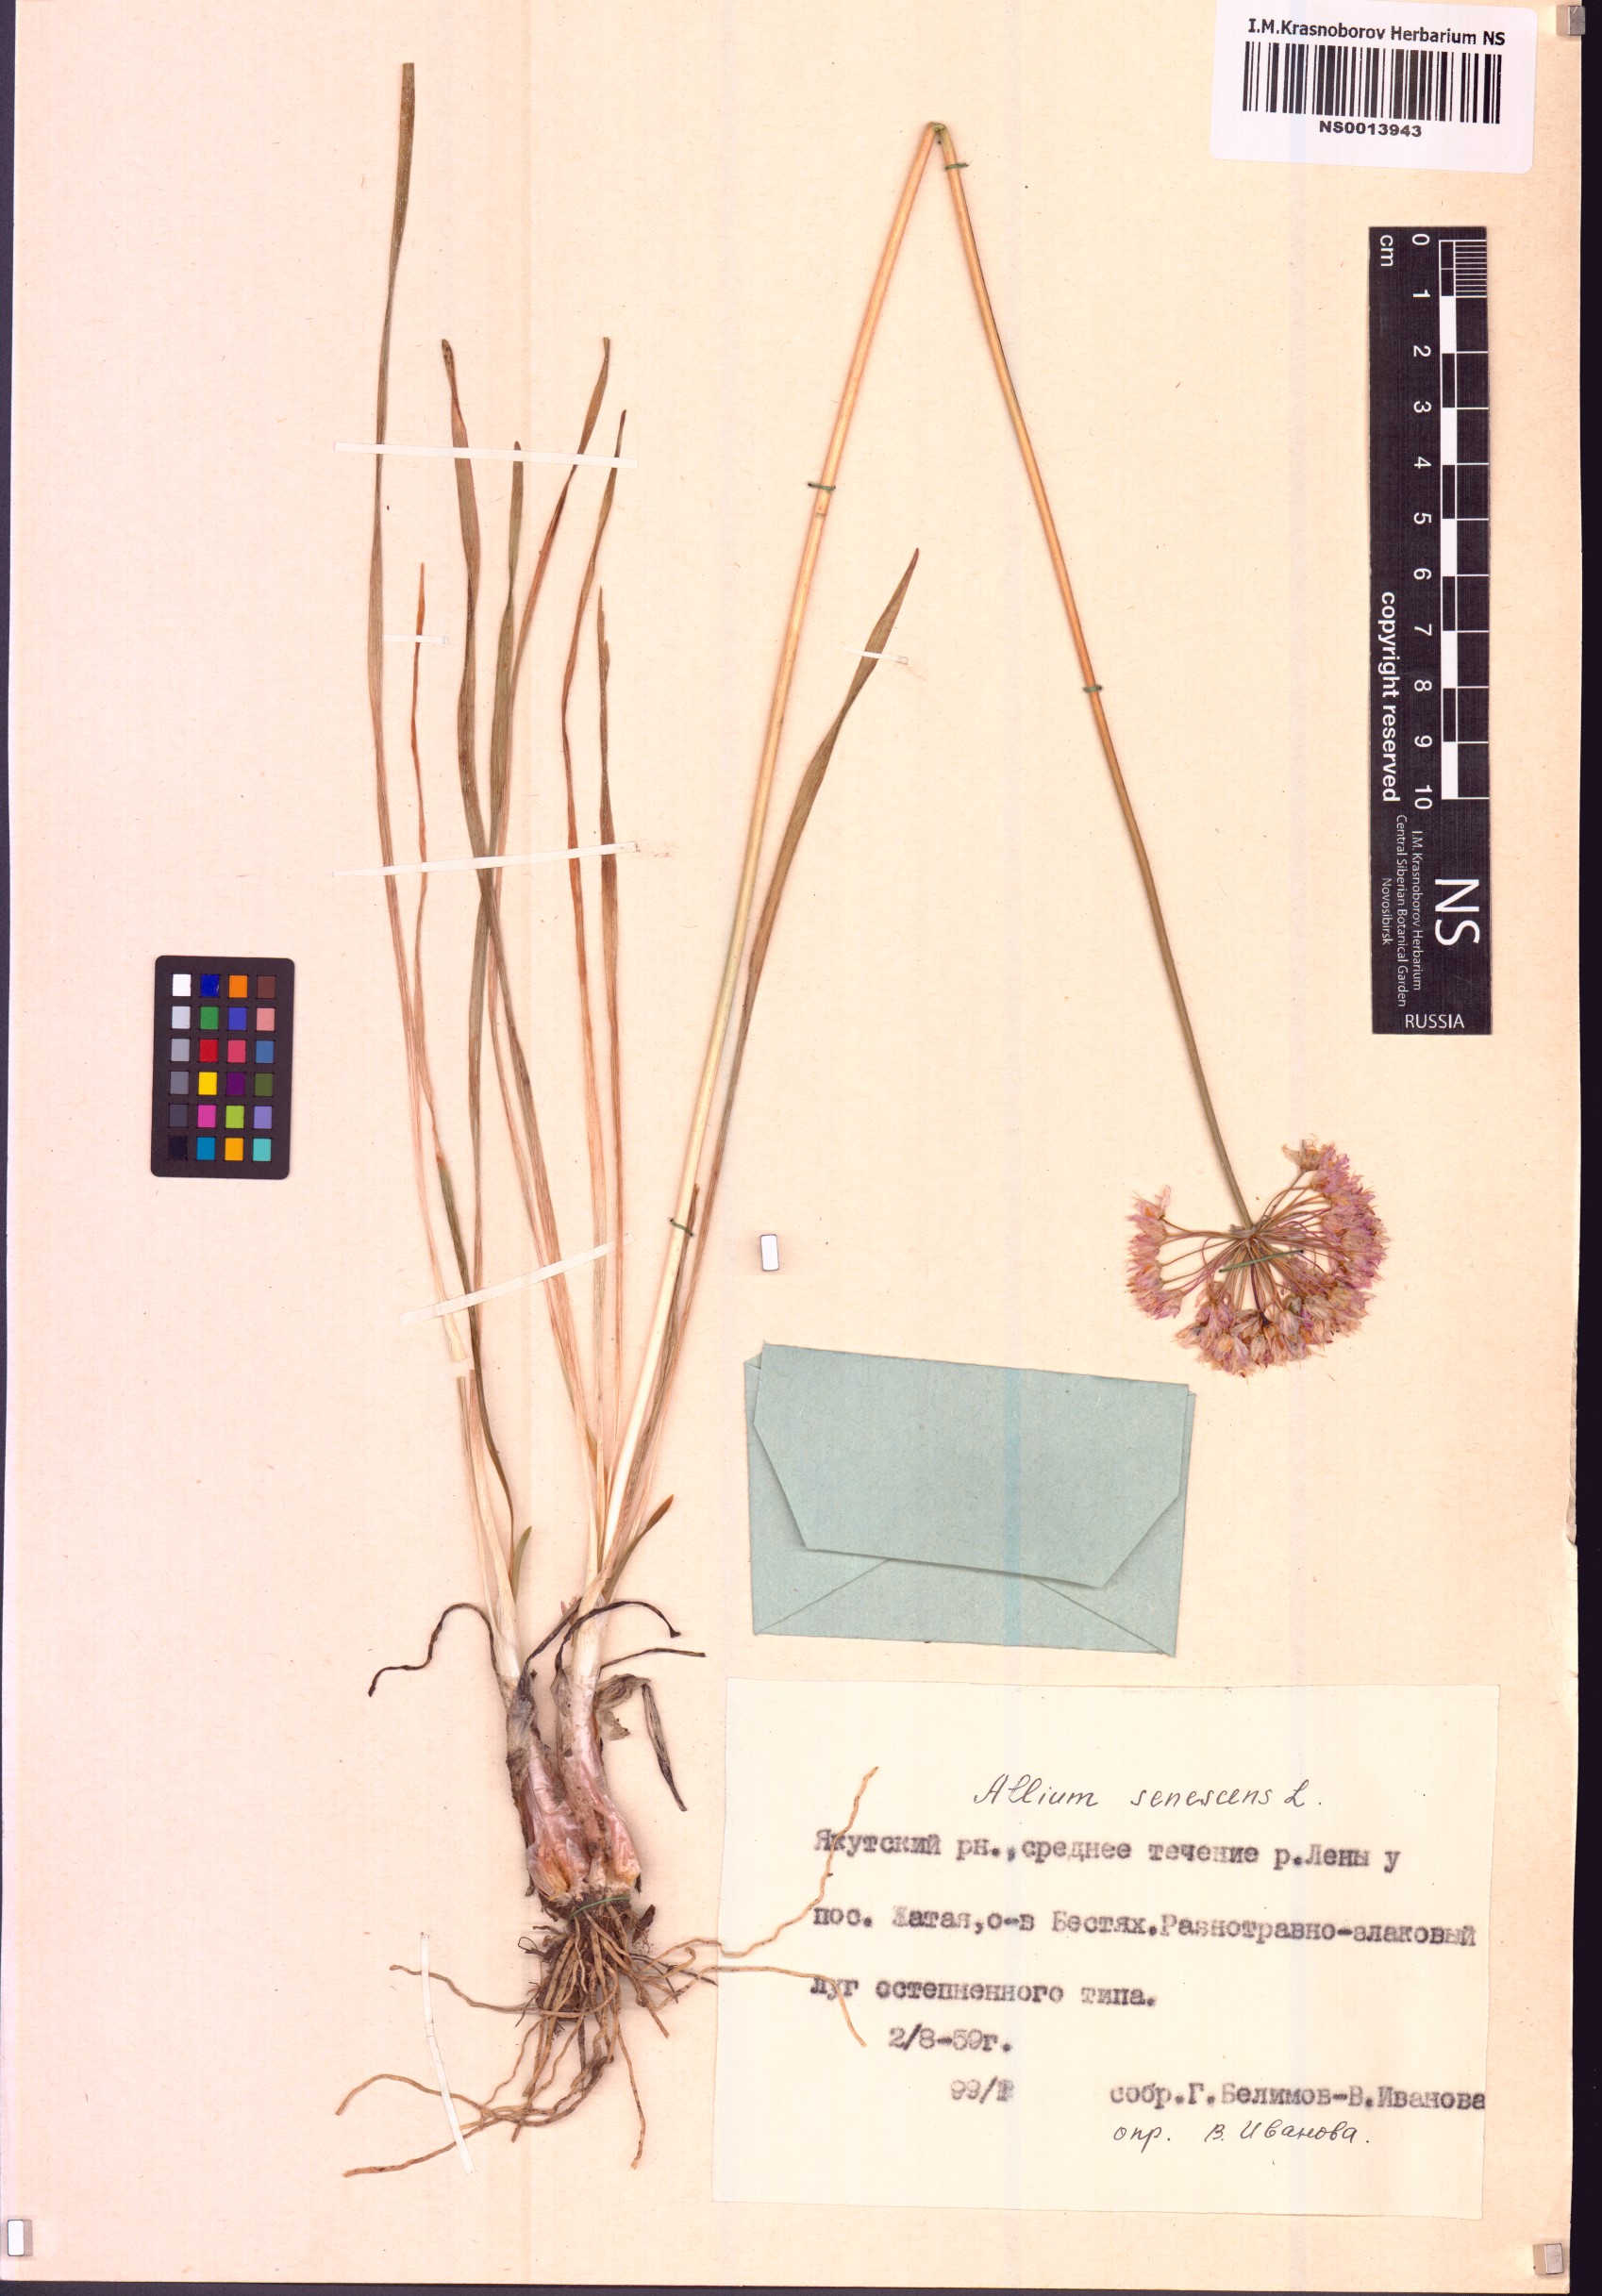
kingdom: Plantae
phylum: Tracheophyta
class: Liliopsida
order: Asparagales
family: Amaryllidaceae
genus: Allium
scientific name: Allium senescens
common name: German garlic
